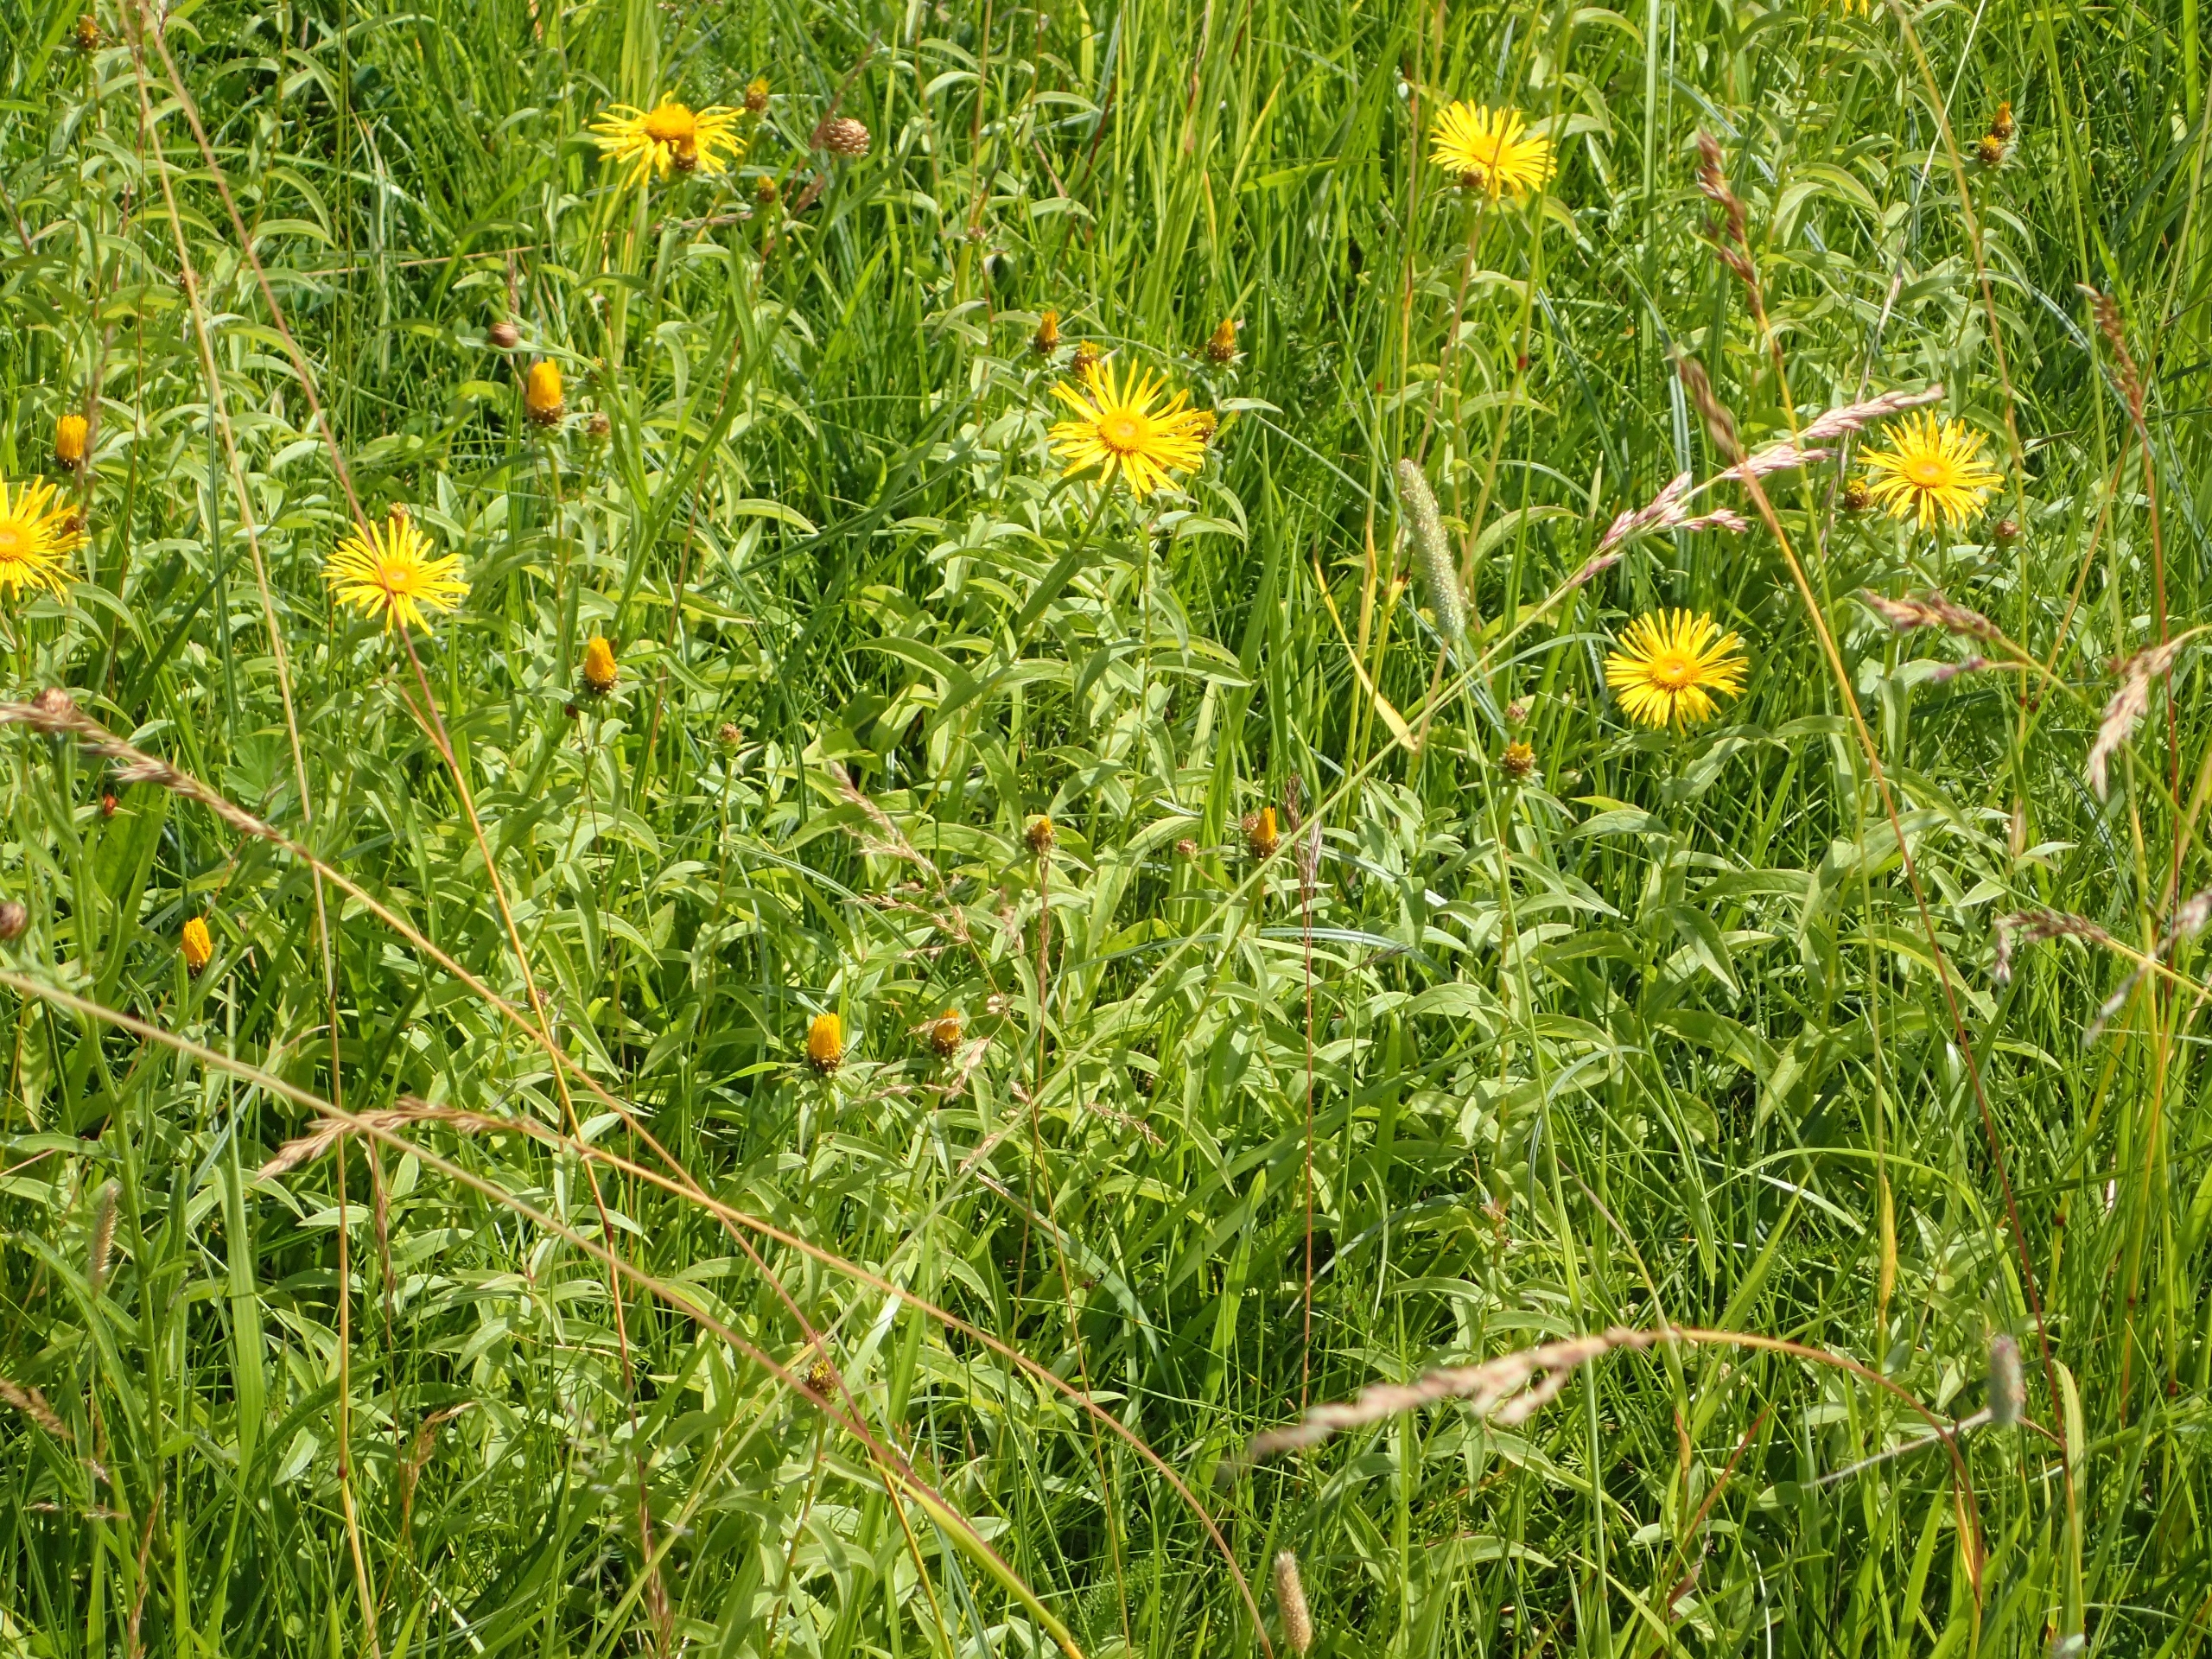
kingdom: Plantae
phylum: Tracheophyta
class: Magnoliopsida
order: Asterales
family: Asteraceae
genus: Pentanema
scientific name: Pentanema salicinum
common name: Pile-alant
